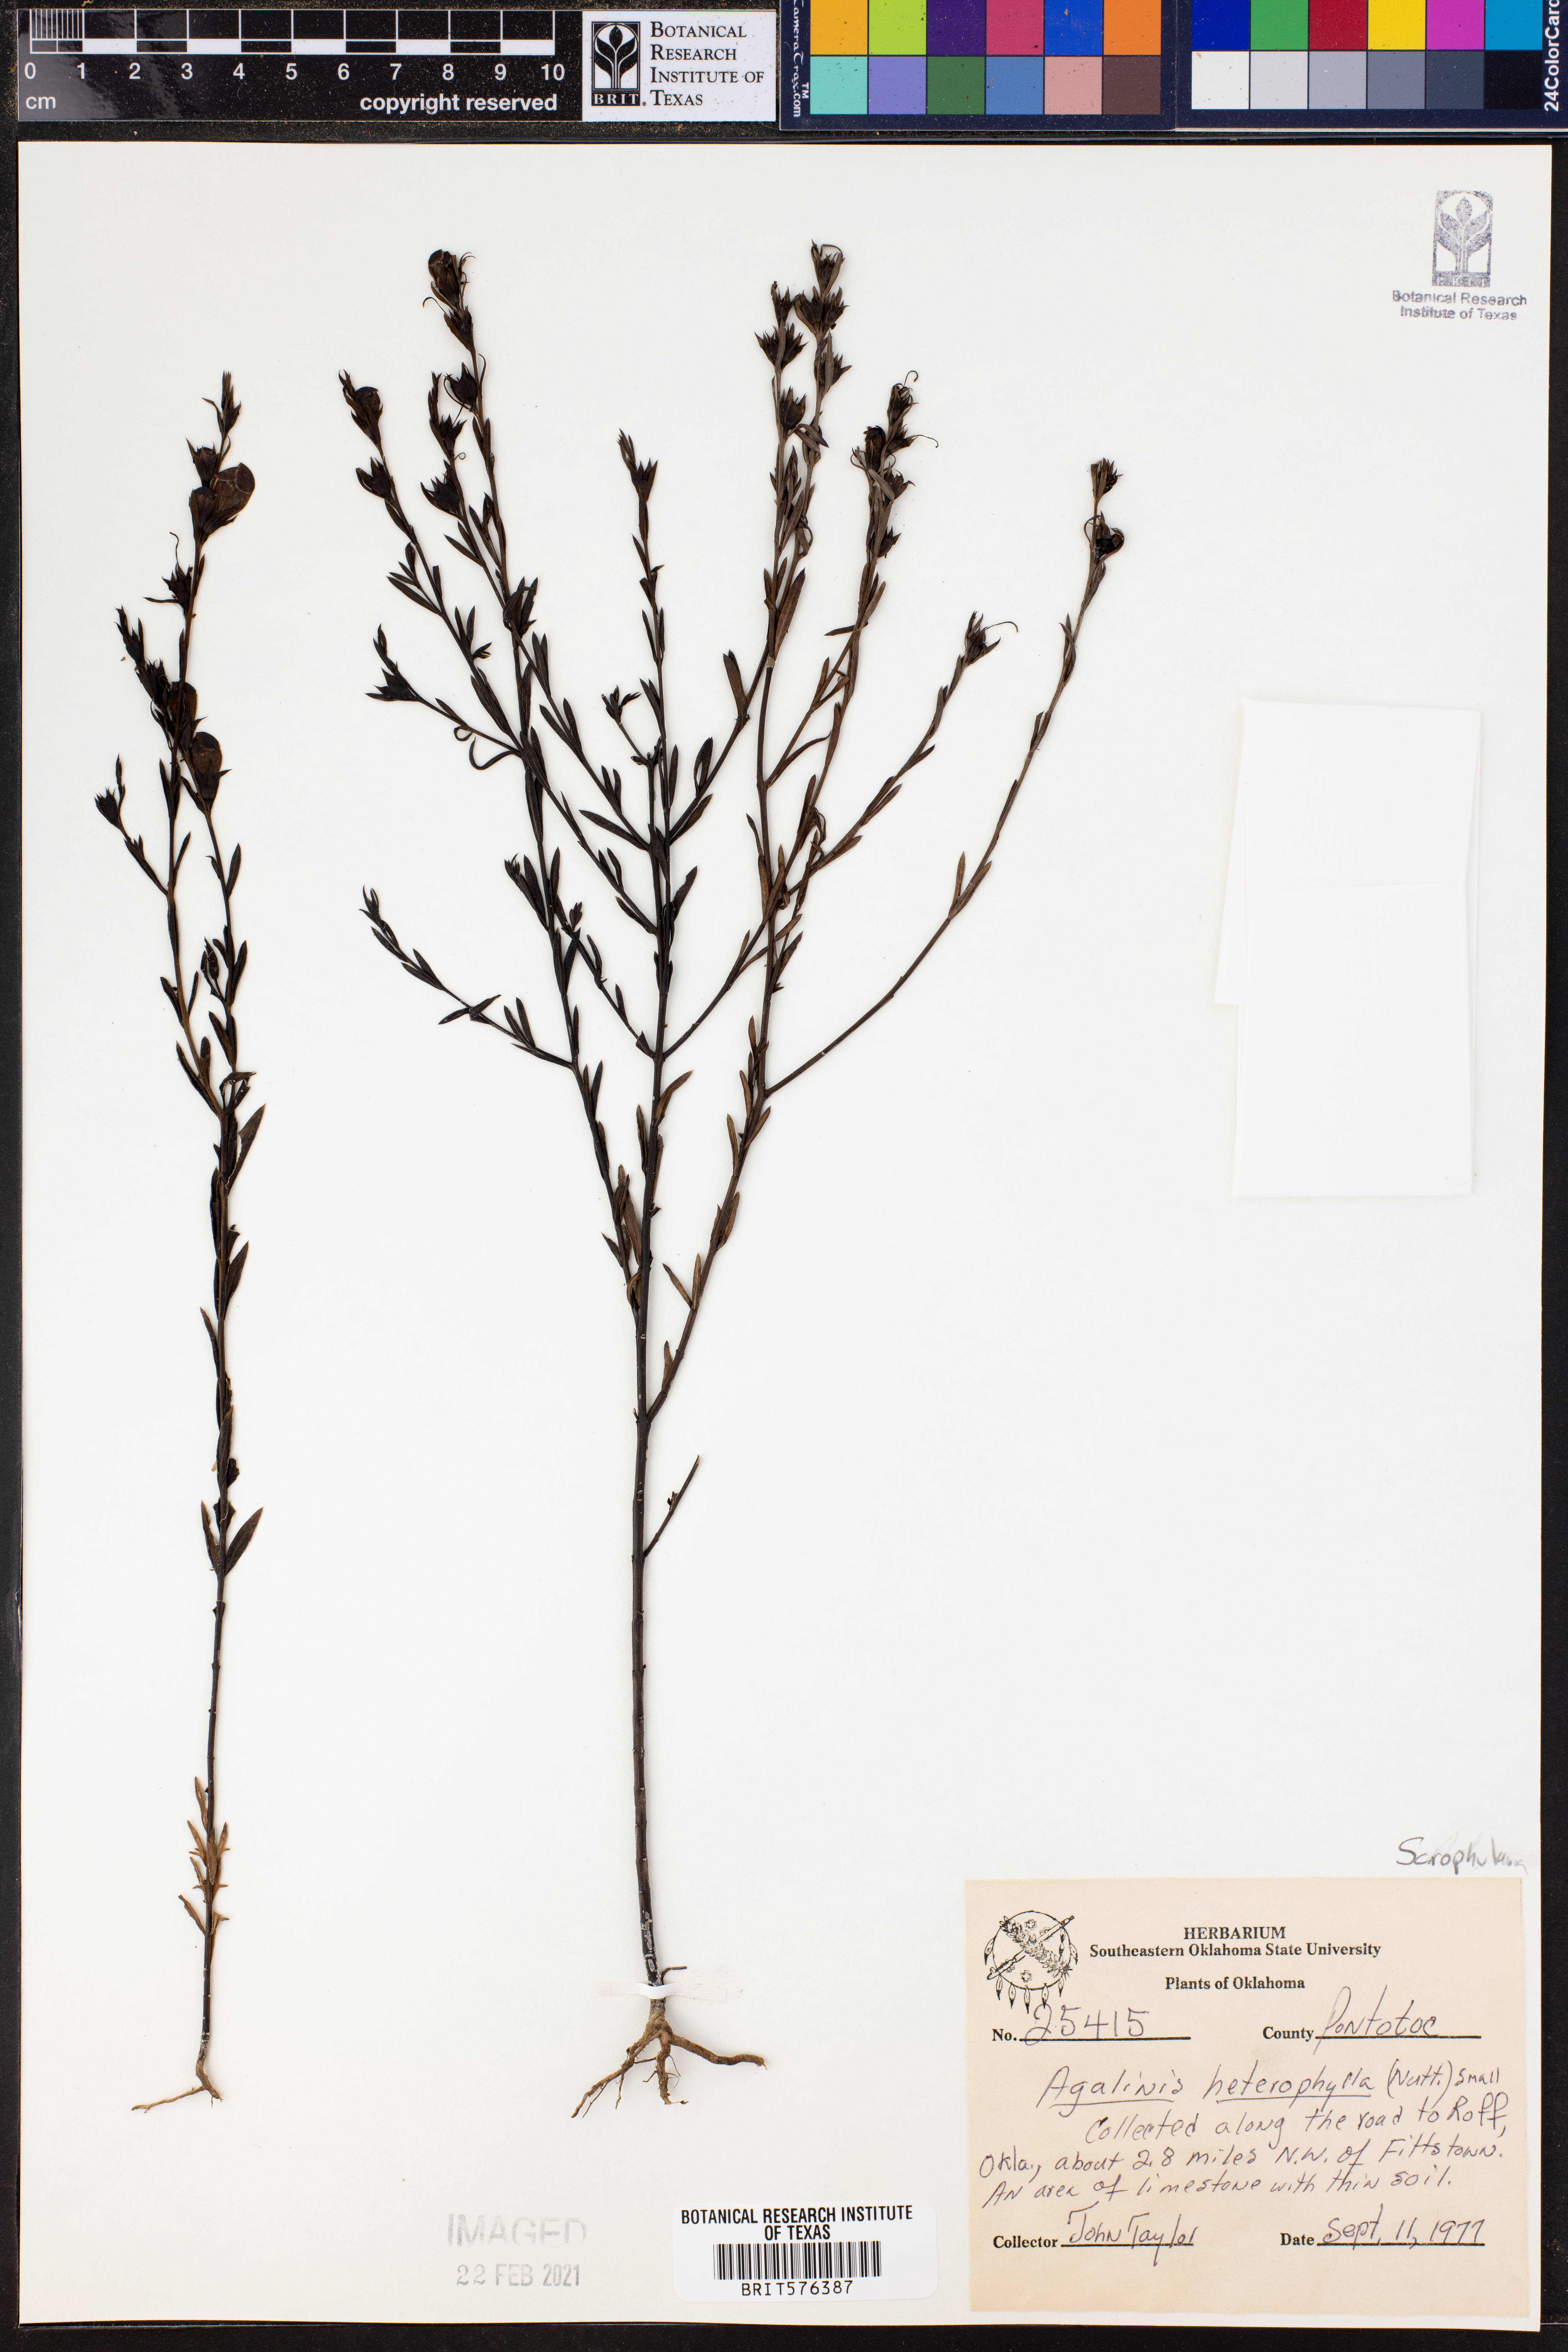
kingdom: Plantae
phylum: Tracheophyta
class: Magnoliopsida
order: Lamiales
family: Orobanchaceae
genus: Agalinis
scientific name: Agalinis heterophylla
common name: Prairie agalinis
